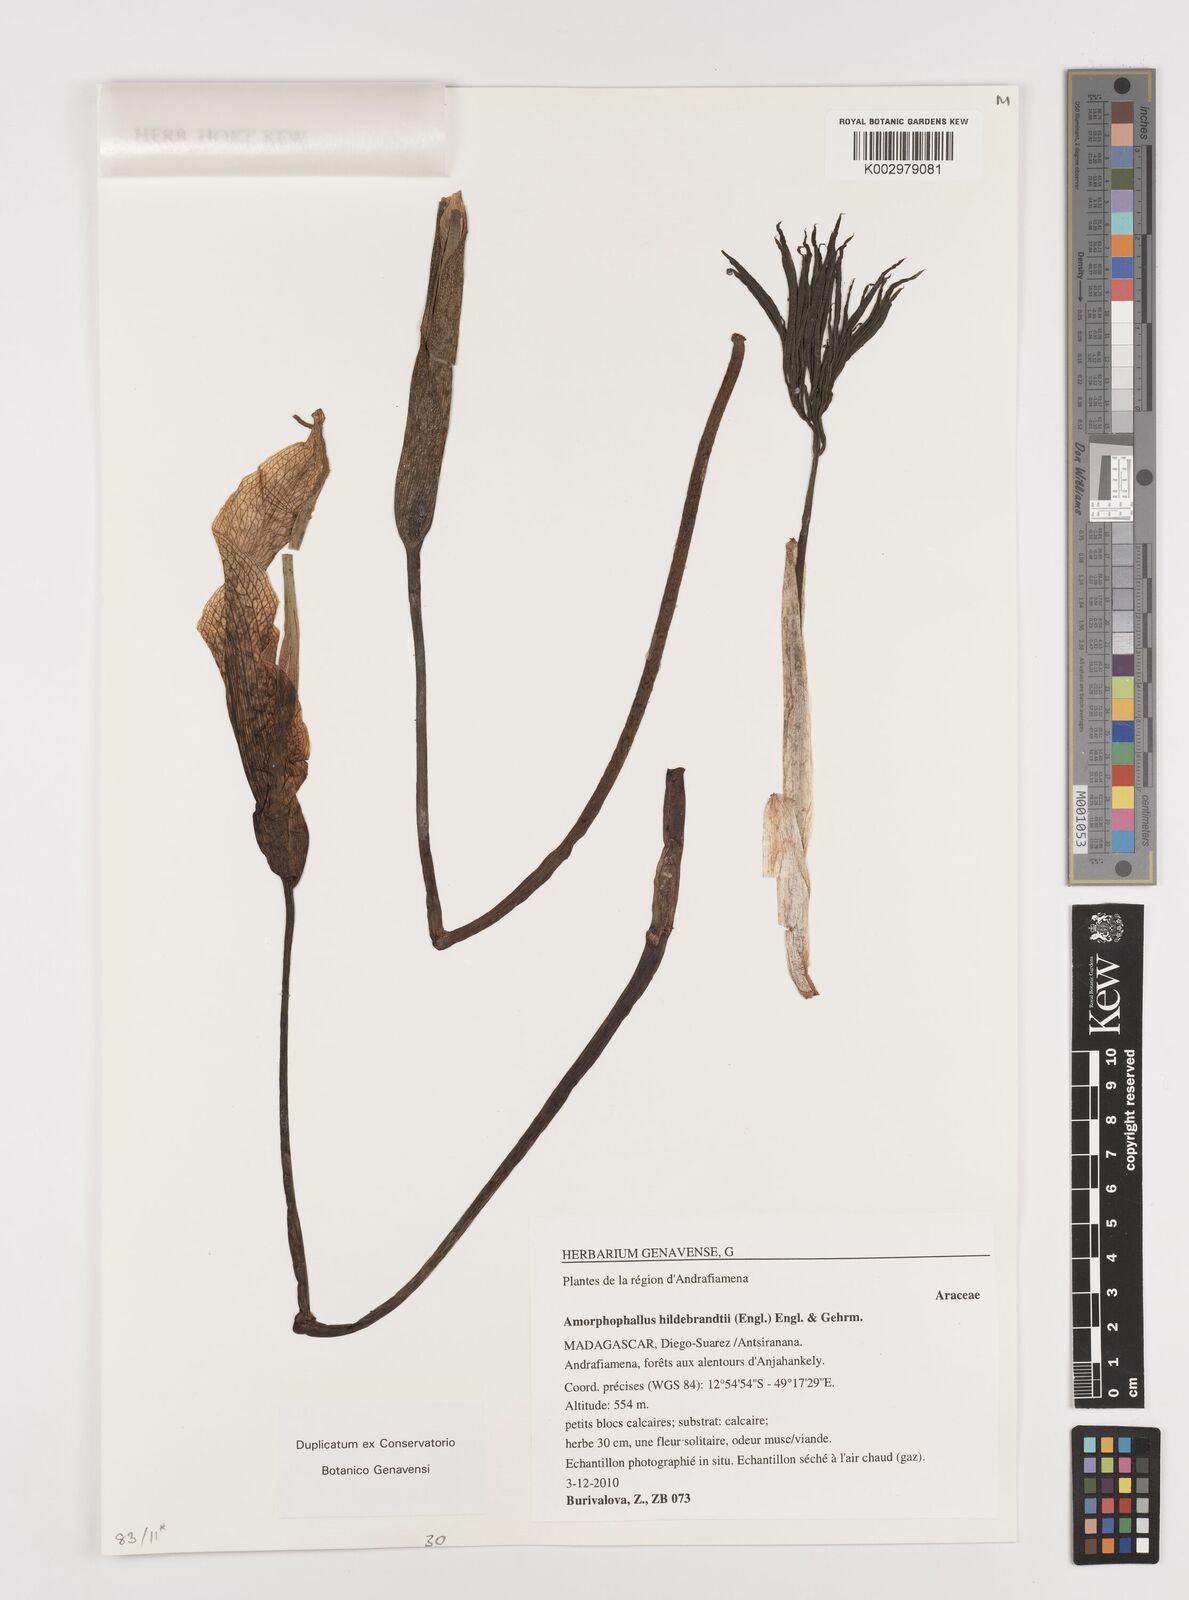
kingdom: Plantae
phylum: Tracheophyta
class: Liliopsida
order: Alismatales
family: Araceae
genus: Amorphophallus
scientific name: Amorphophallus hildebrandtii
